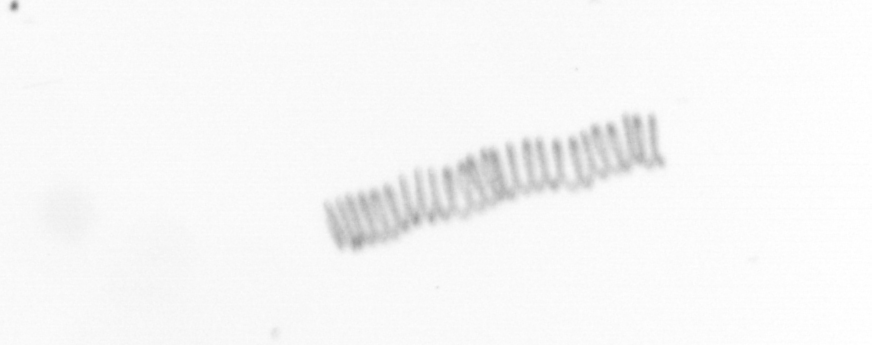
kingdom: Chromista
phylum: Ochrophyta
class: Bacillariophyceae
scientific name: Bacillariophyceae
